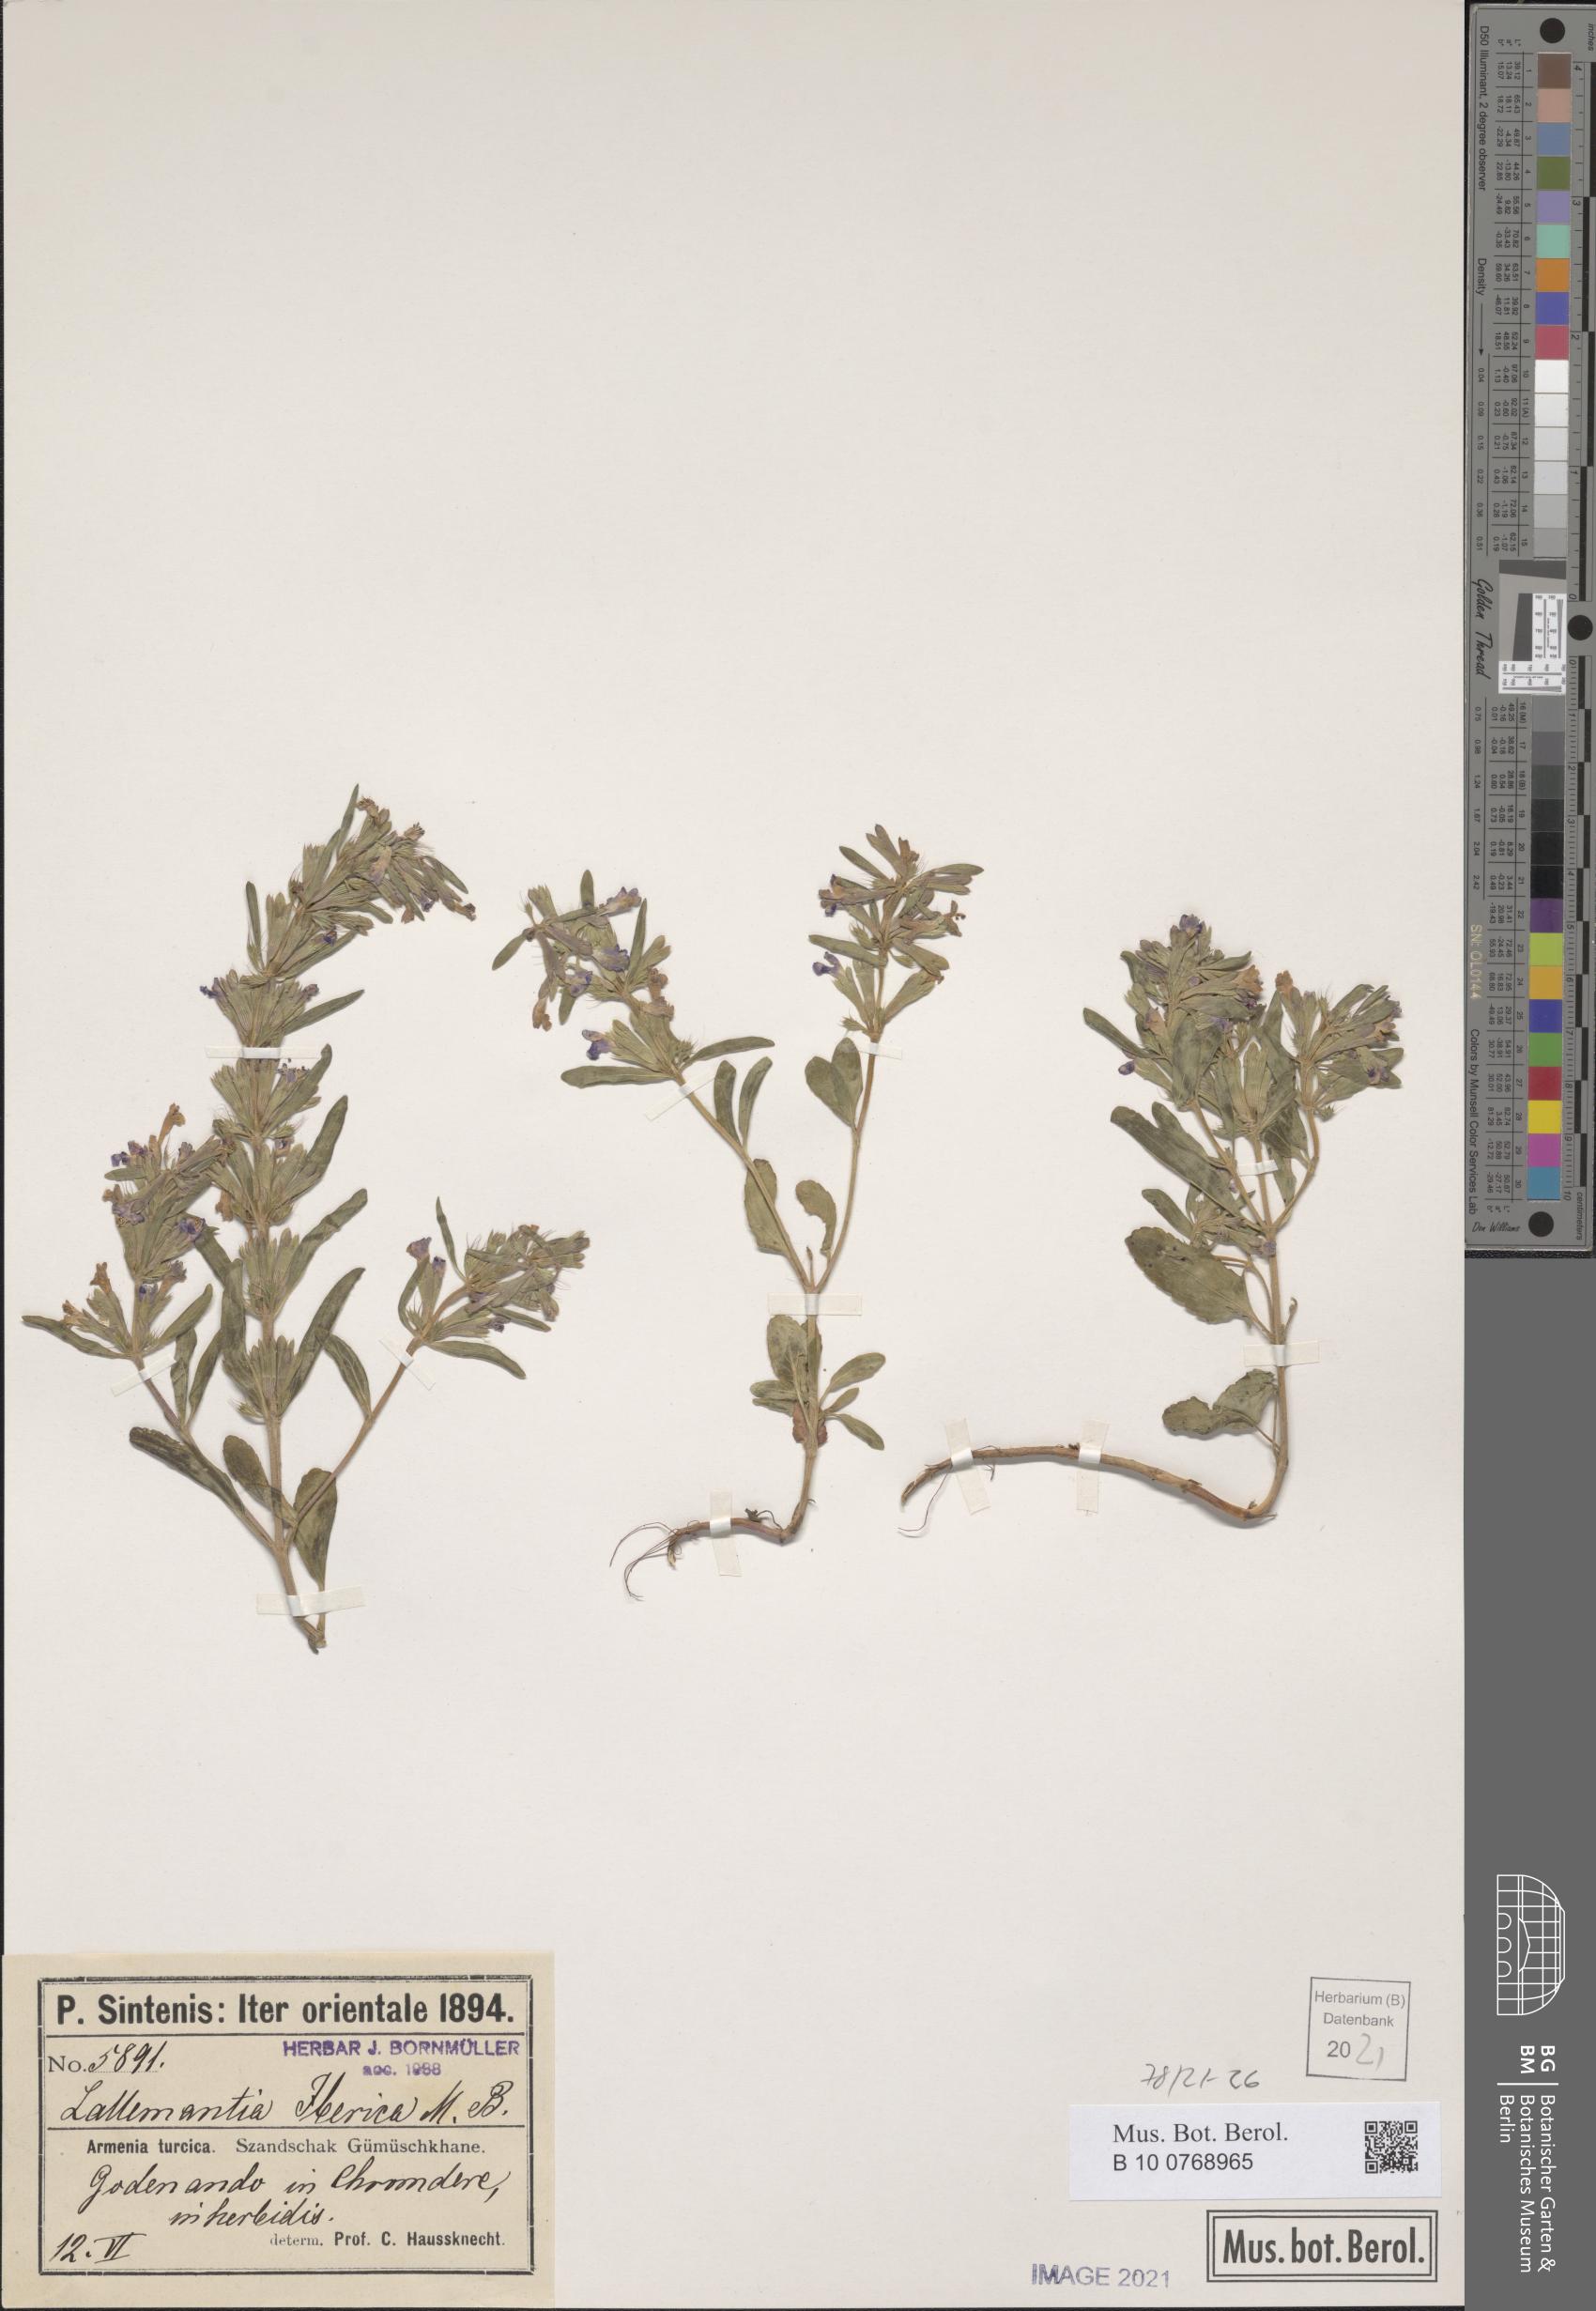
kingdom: Plantae
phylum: Tracheophyta
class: Magnoliopsida
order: Lamiales
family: Lamiaceae
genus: Lallemantia
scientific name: Lallemantia iberica
